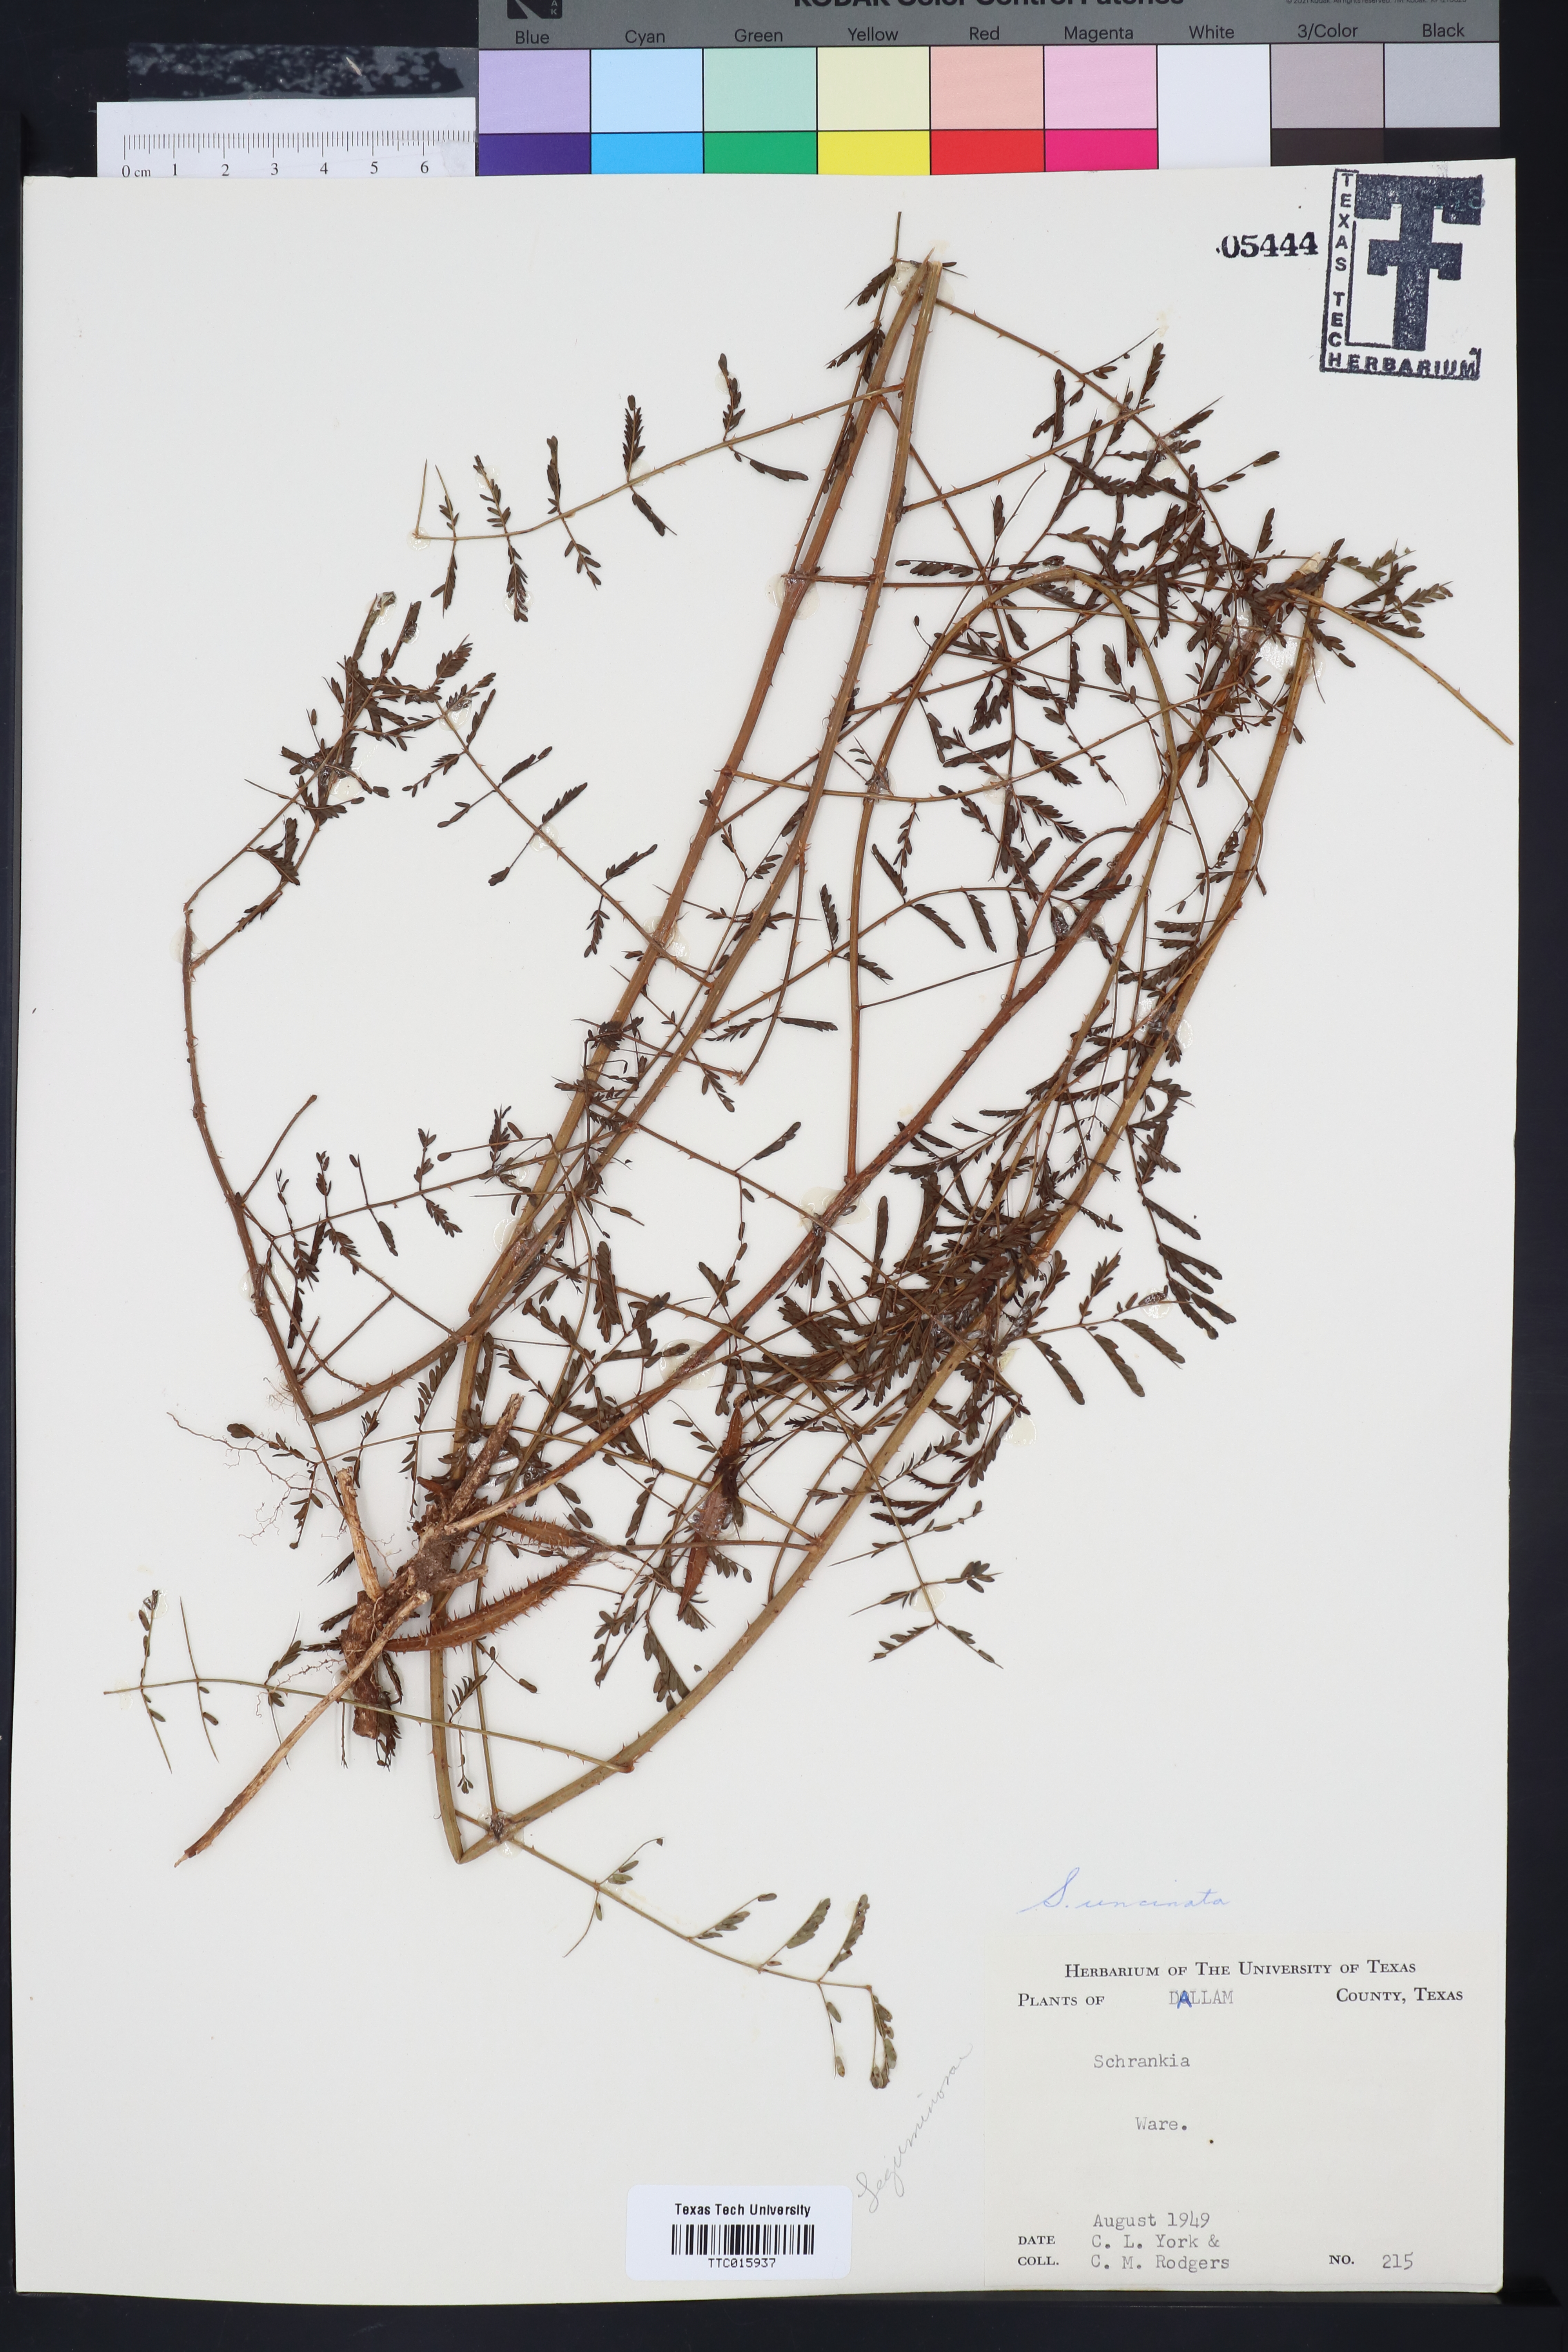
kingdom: Plantae
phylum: Tracheophyta
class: Magnoliopsida
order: Fabales
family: Fabaceae
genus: Mimosa
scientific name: Mimosa quadrivalvis
